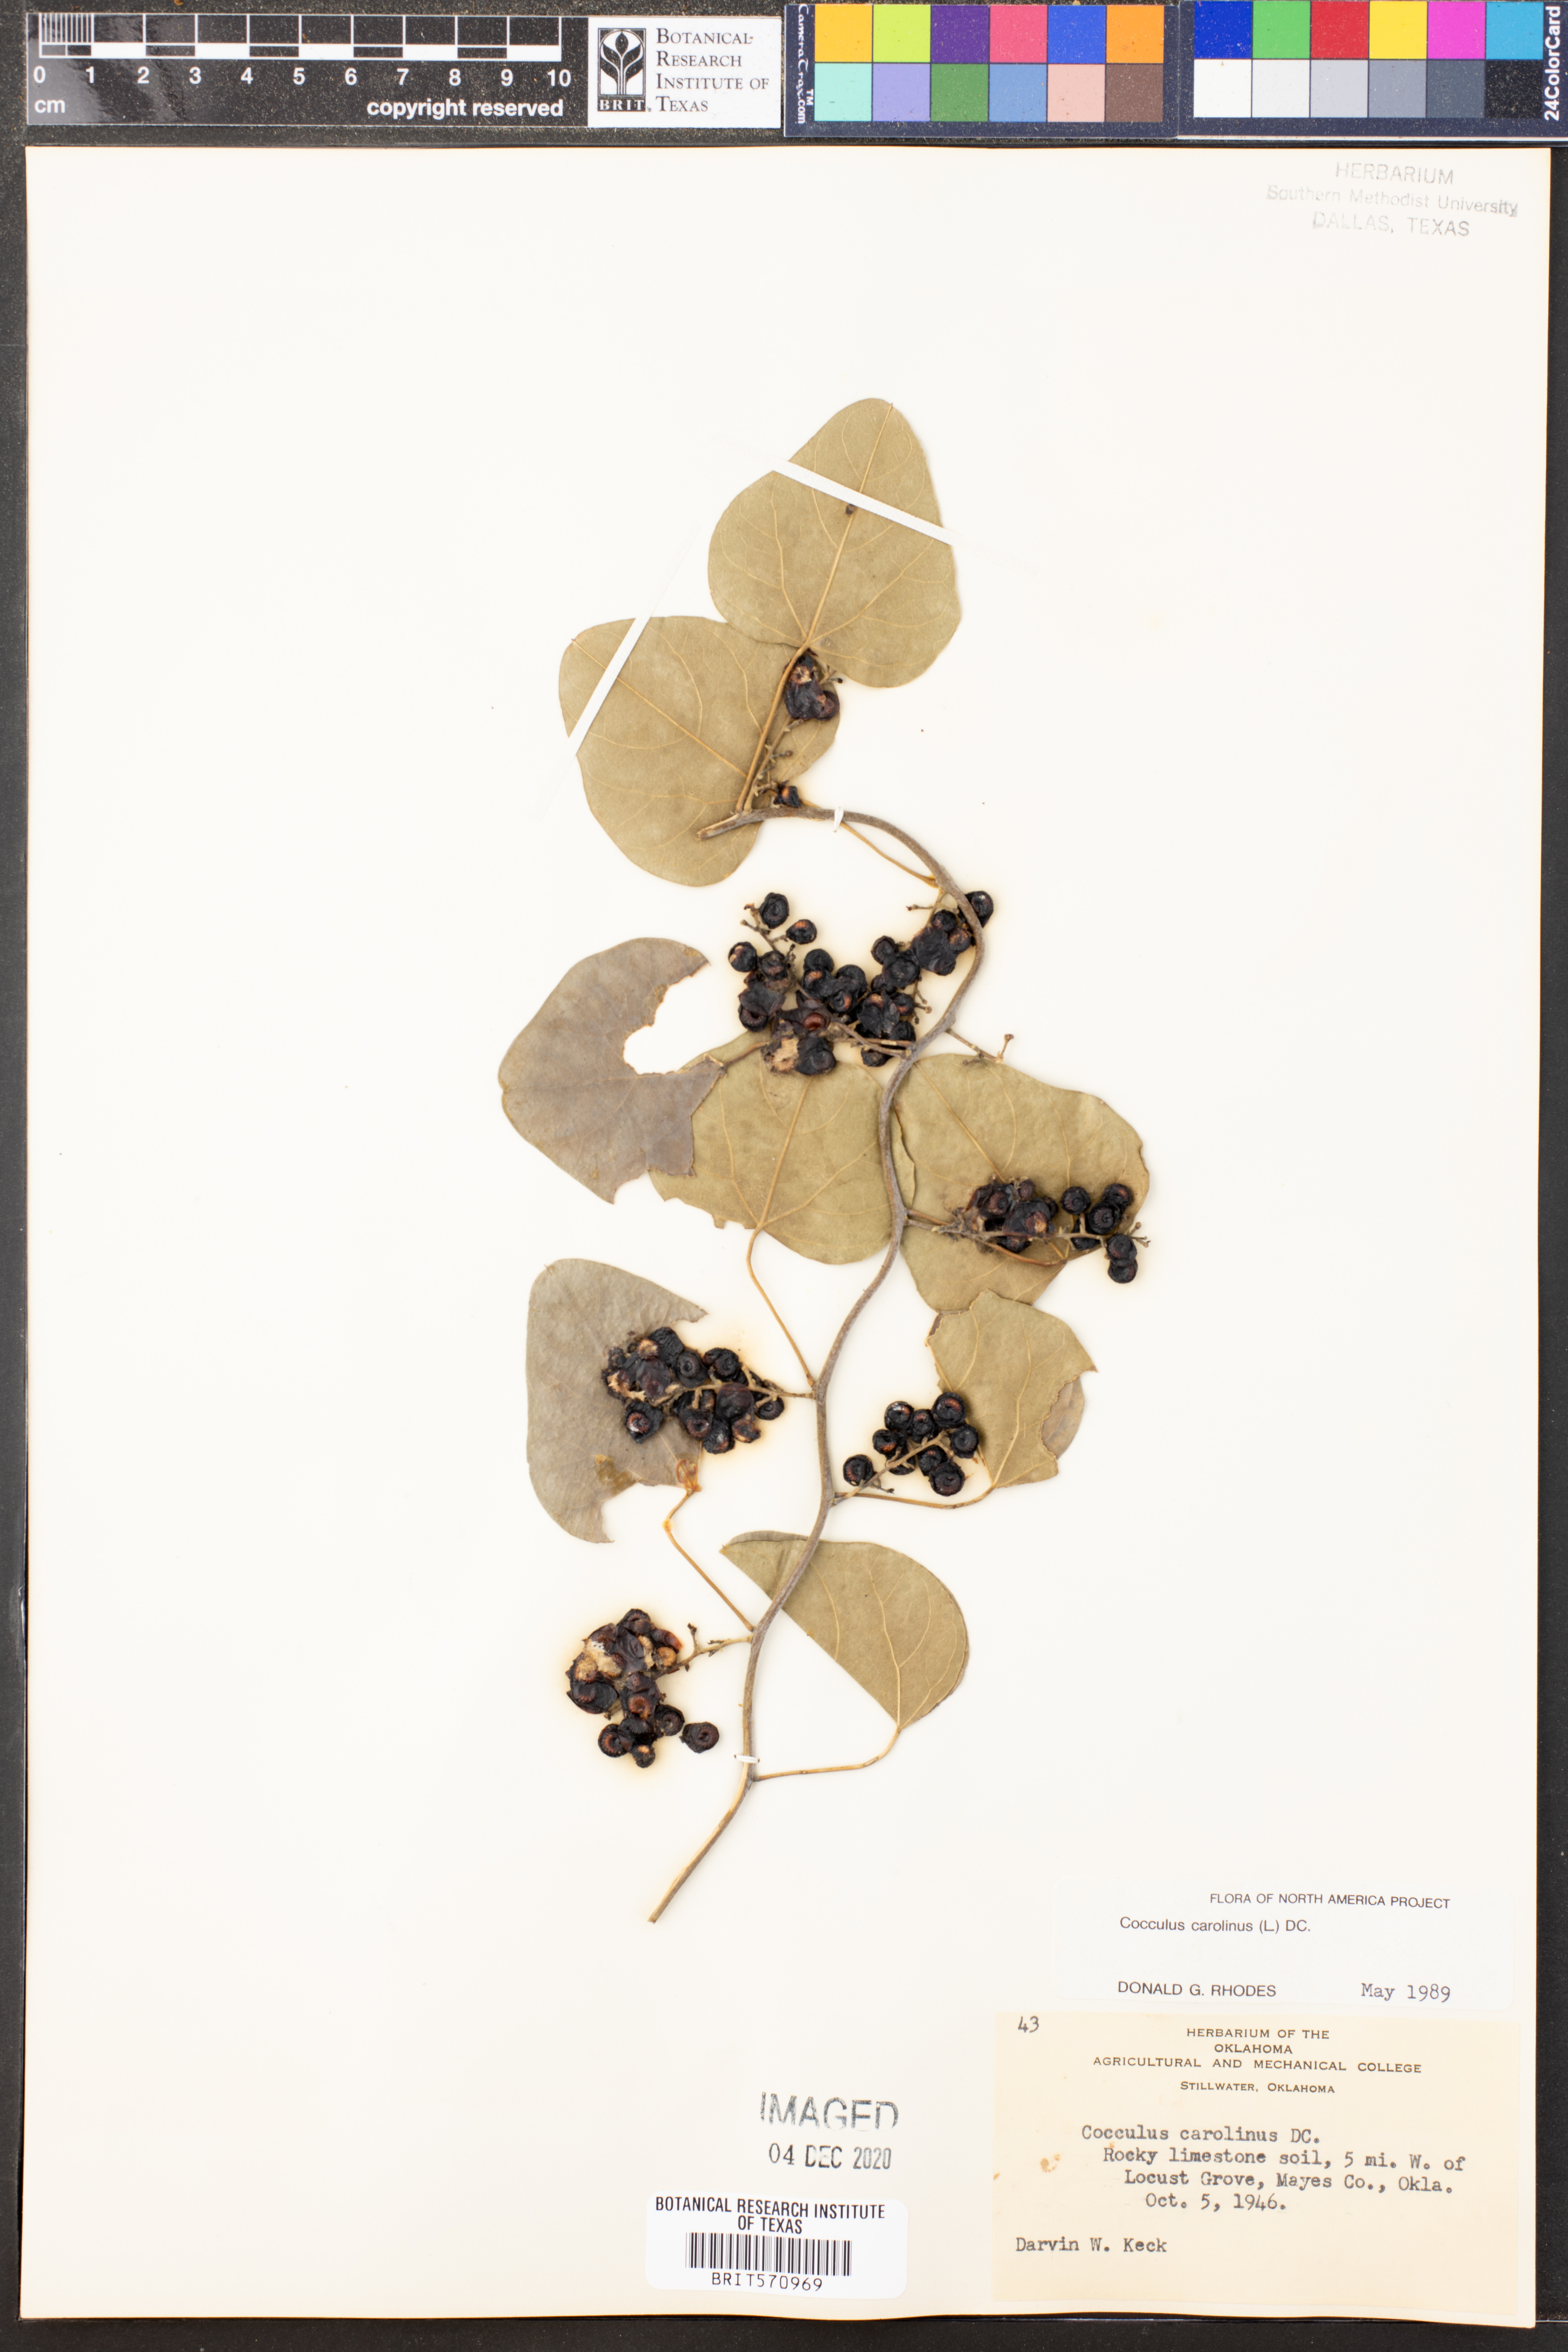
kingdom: Plantae
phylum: Tracheophyta
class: Magnoliopsida
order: Ranunculales
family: Menispermaceae
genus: Cocculus
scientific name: Cocculus carolinus
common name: Carolina moonseed
